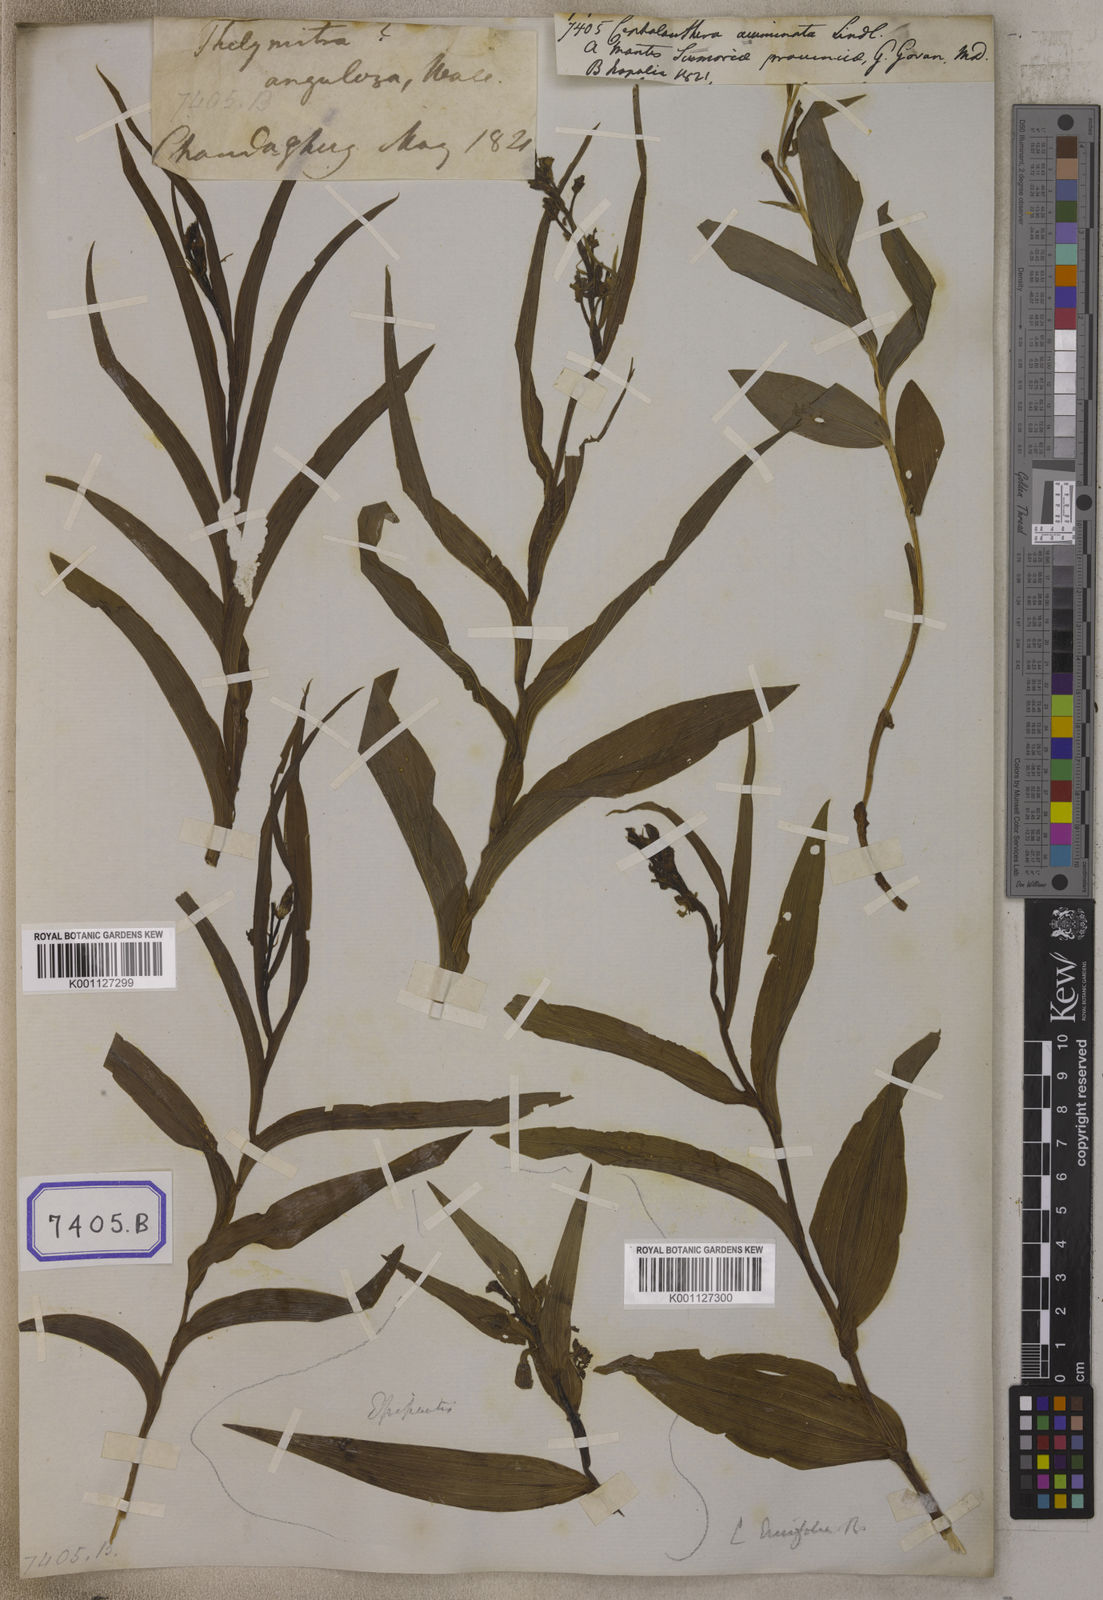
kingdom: Plantae
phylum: Tracheophyta
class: Liliopsida
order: Asparagales
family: Orchidaceae
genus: Cephalanthera
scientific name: Cephalanthera longifolia
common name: Narrow-leaved helleborine
